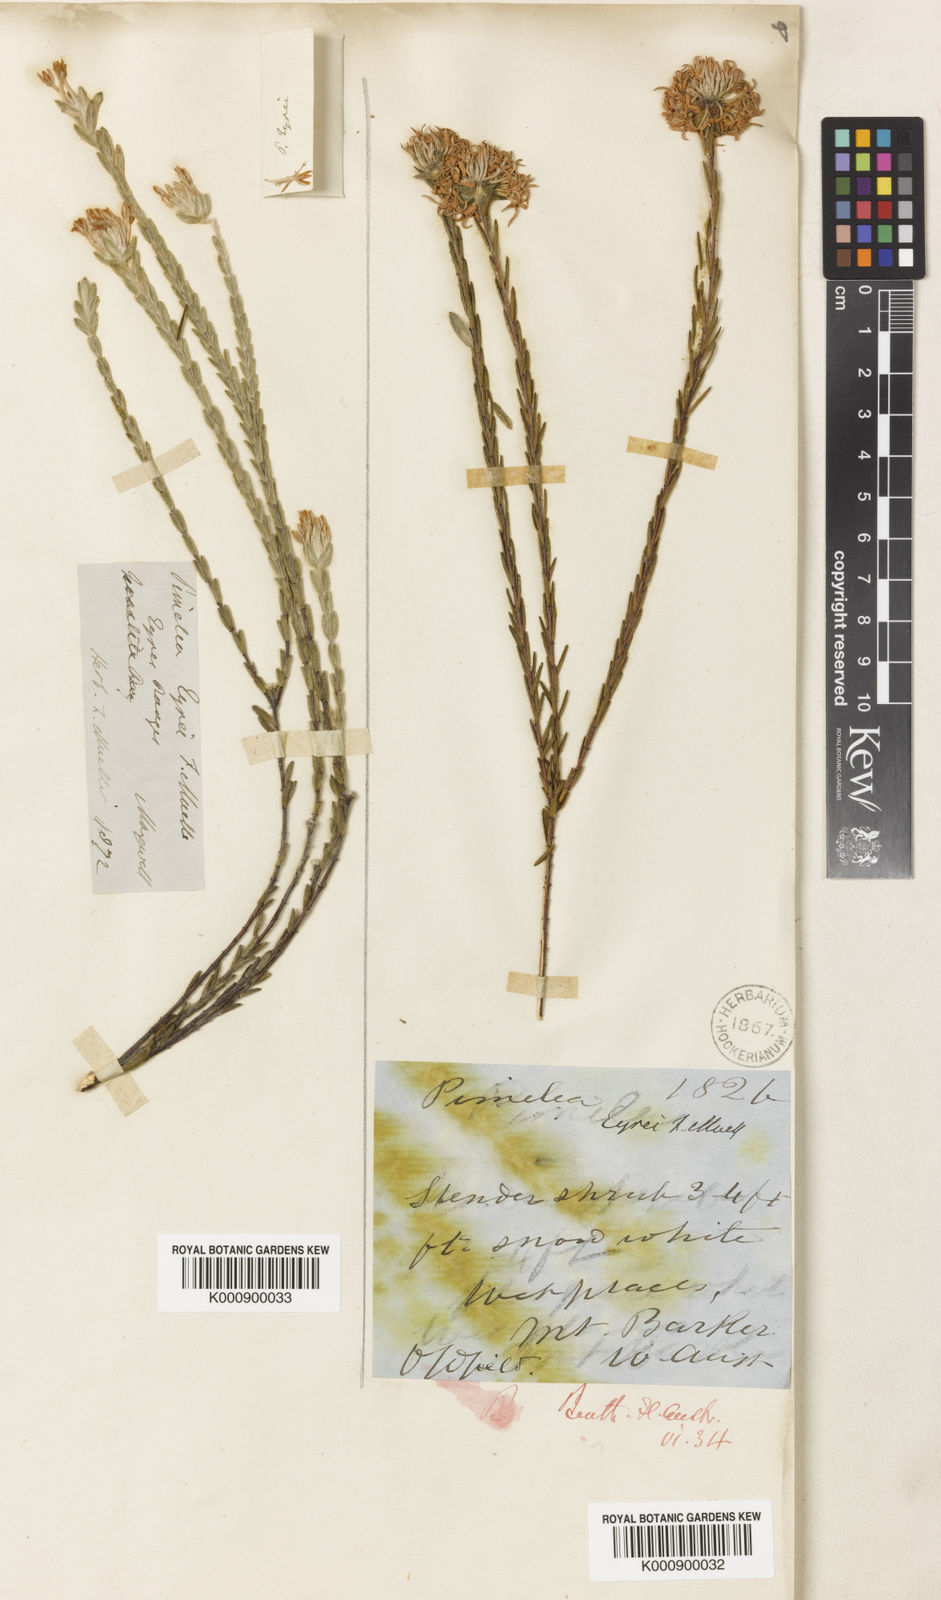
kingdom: Plantae
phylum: Tracheophyta
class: Magnoliopsida
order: Malvales
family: Thymelaeaceae
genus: Pimelea
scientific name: Pimelea eyrei
